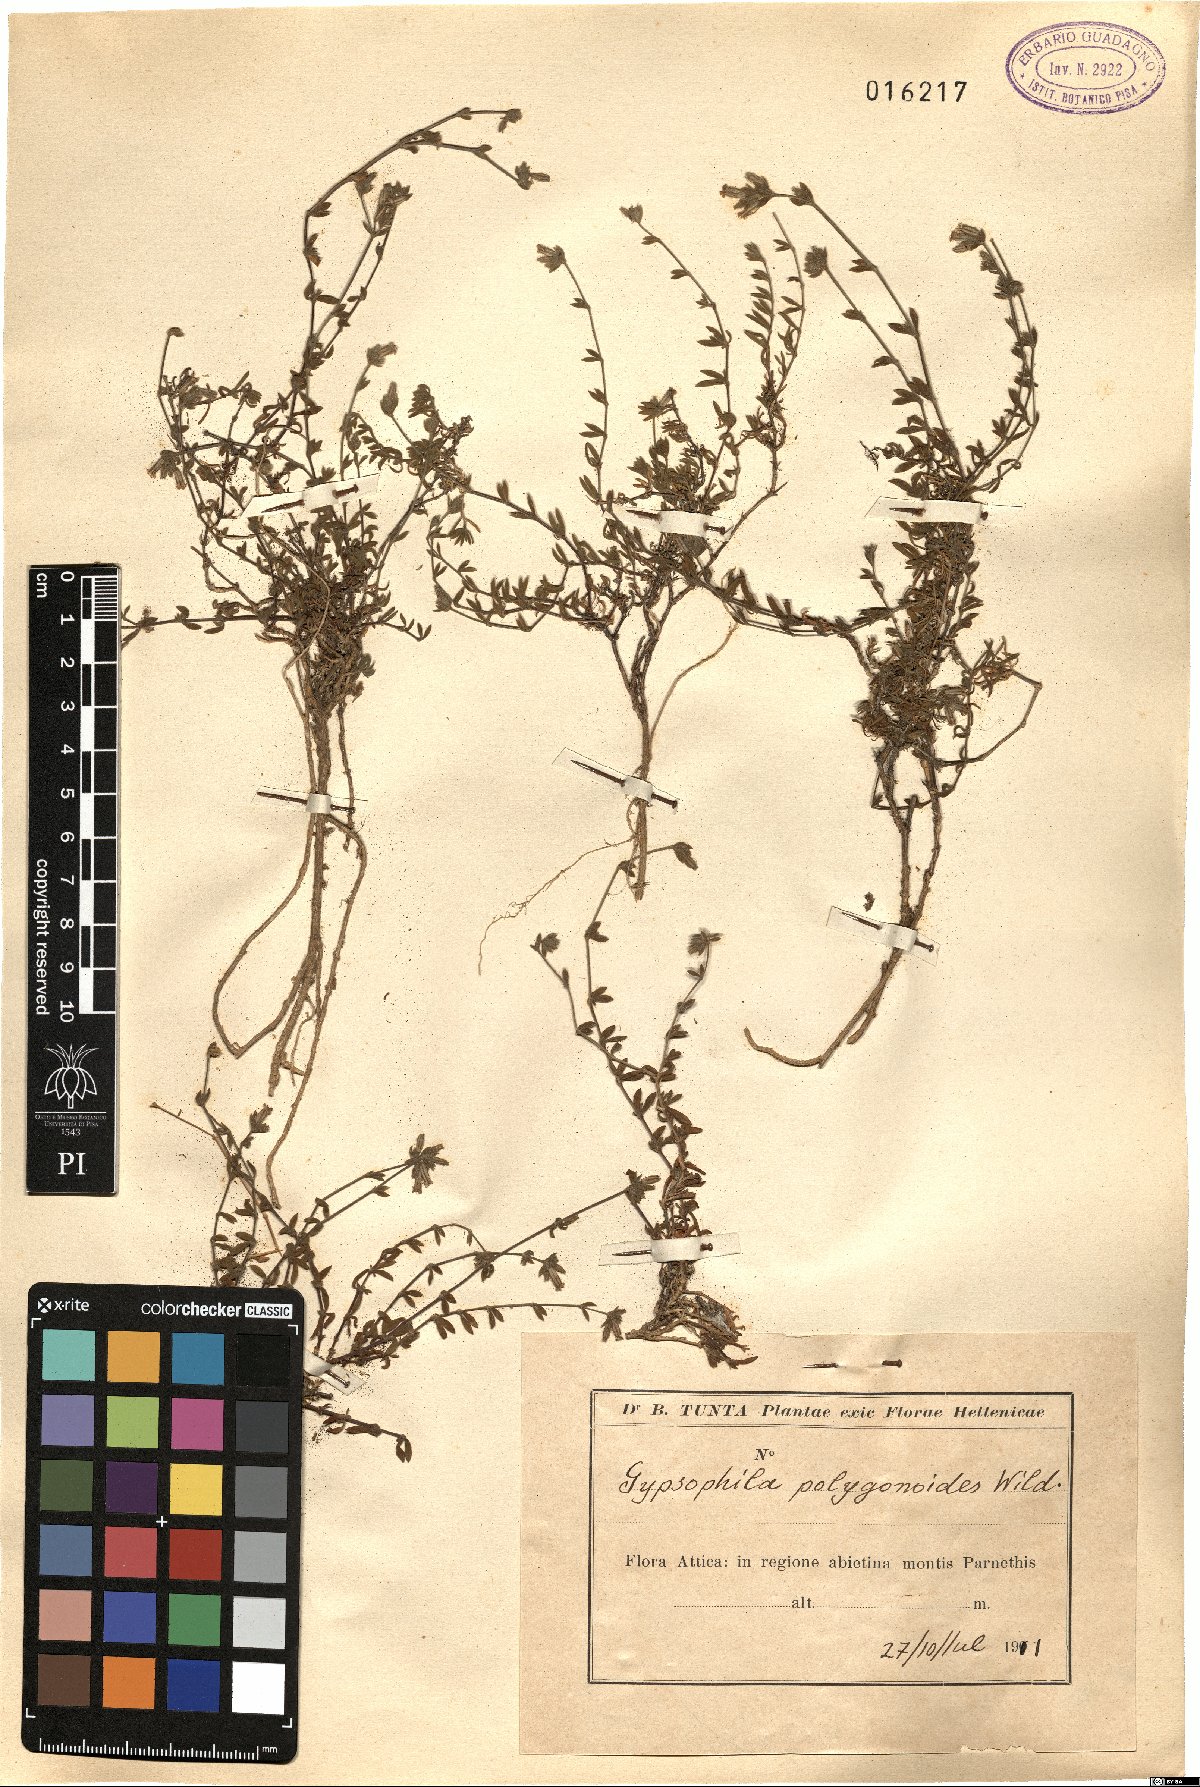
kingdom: Plantae
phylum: Tracheophyta
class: Magnoliopsida
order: Caryophyllales
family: Caryophyllaceae
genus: Graecobolanthus
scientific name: Graecobolanthus graecus
